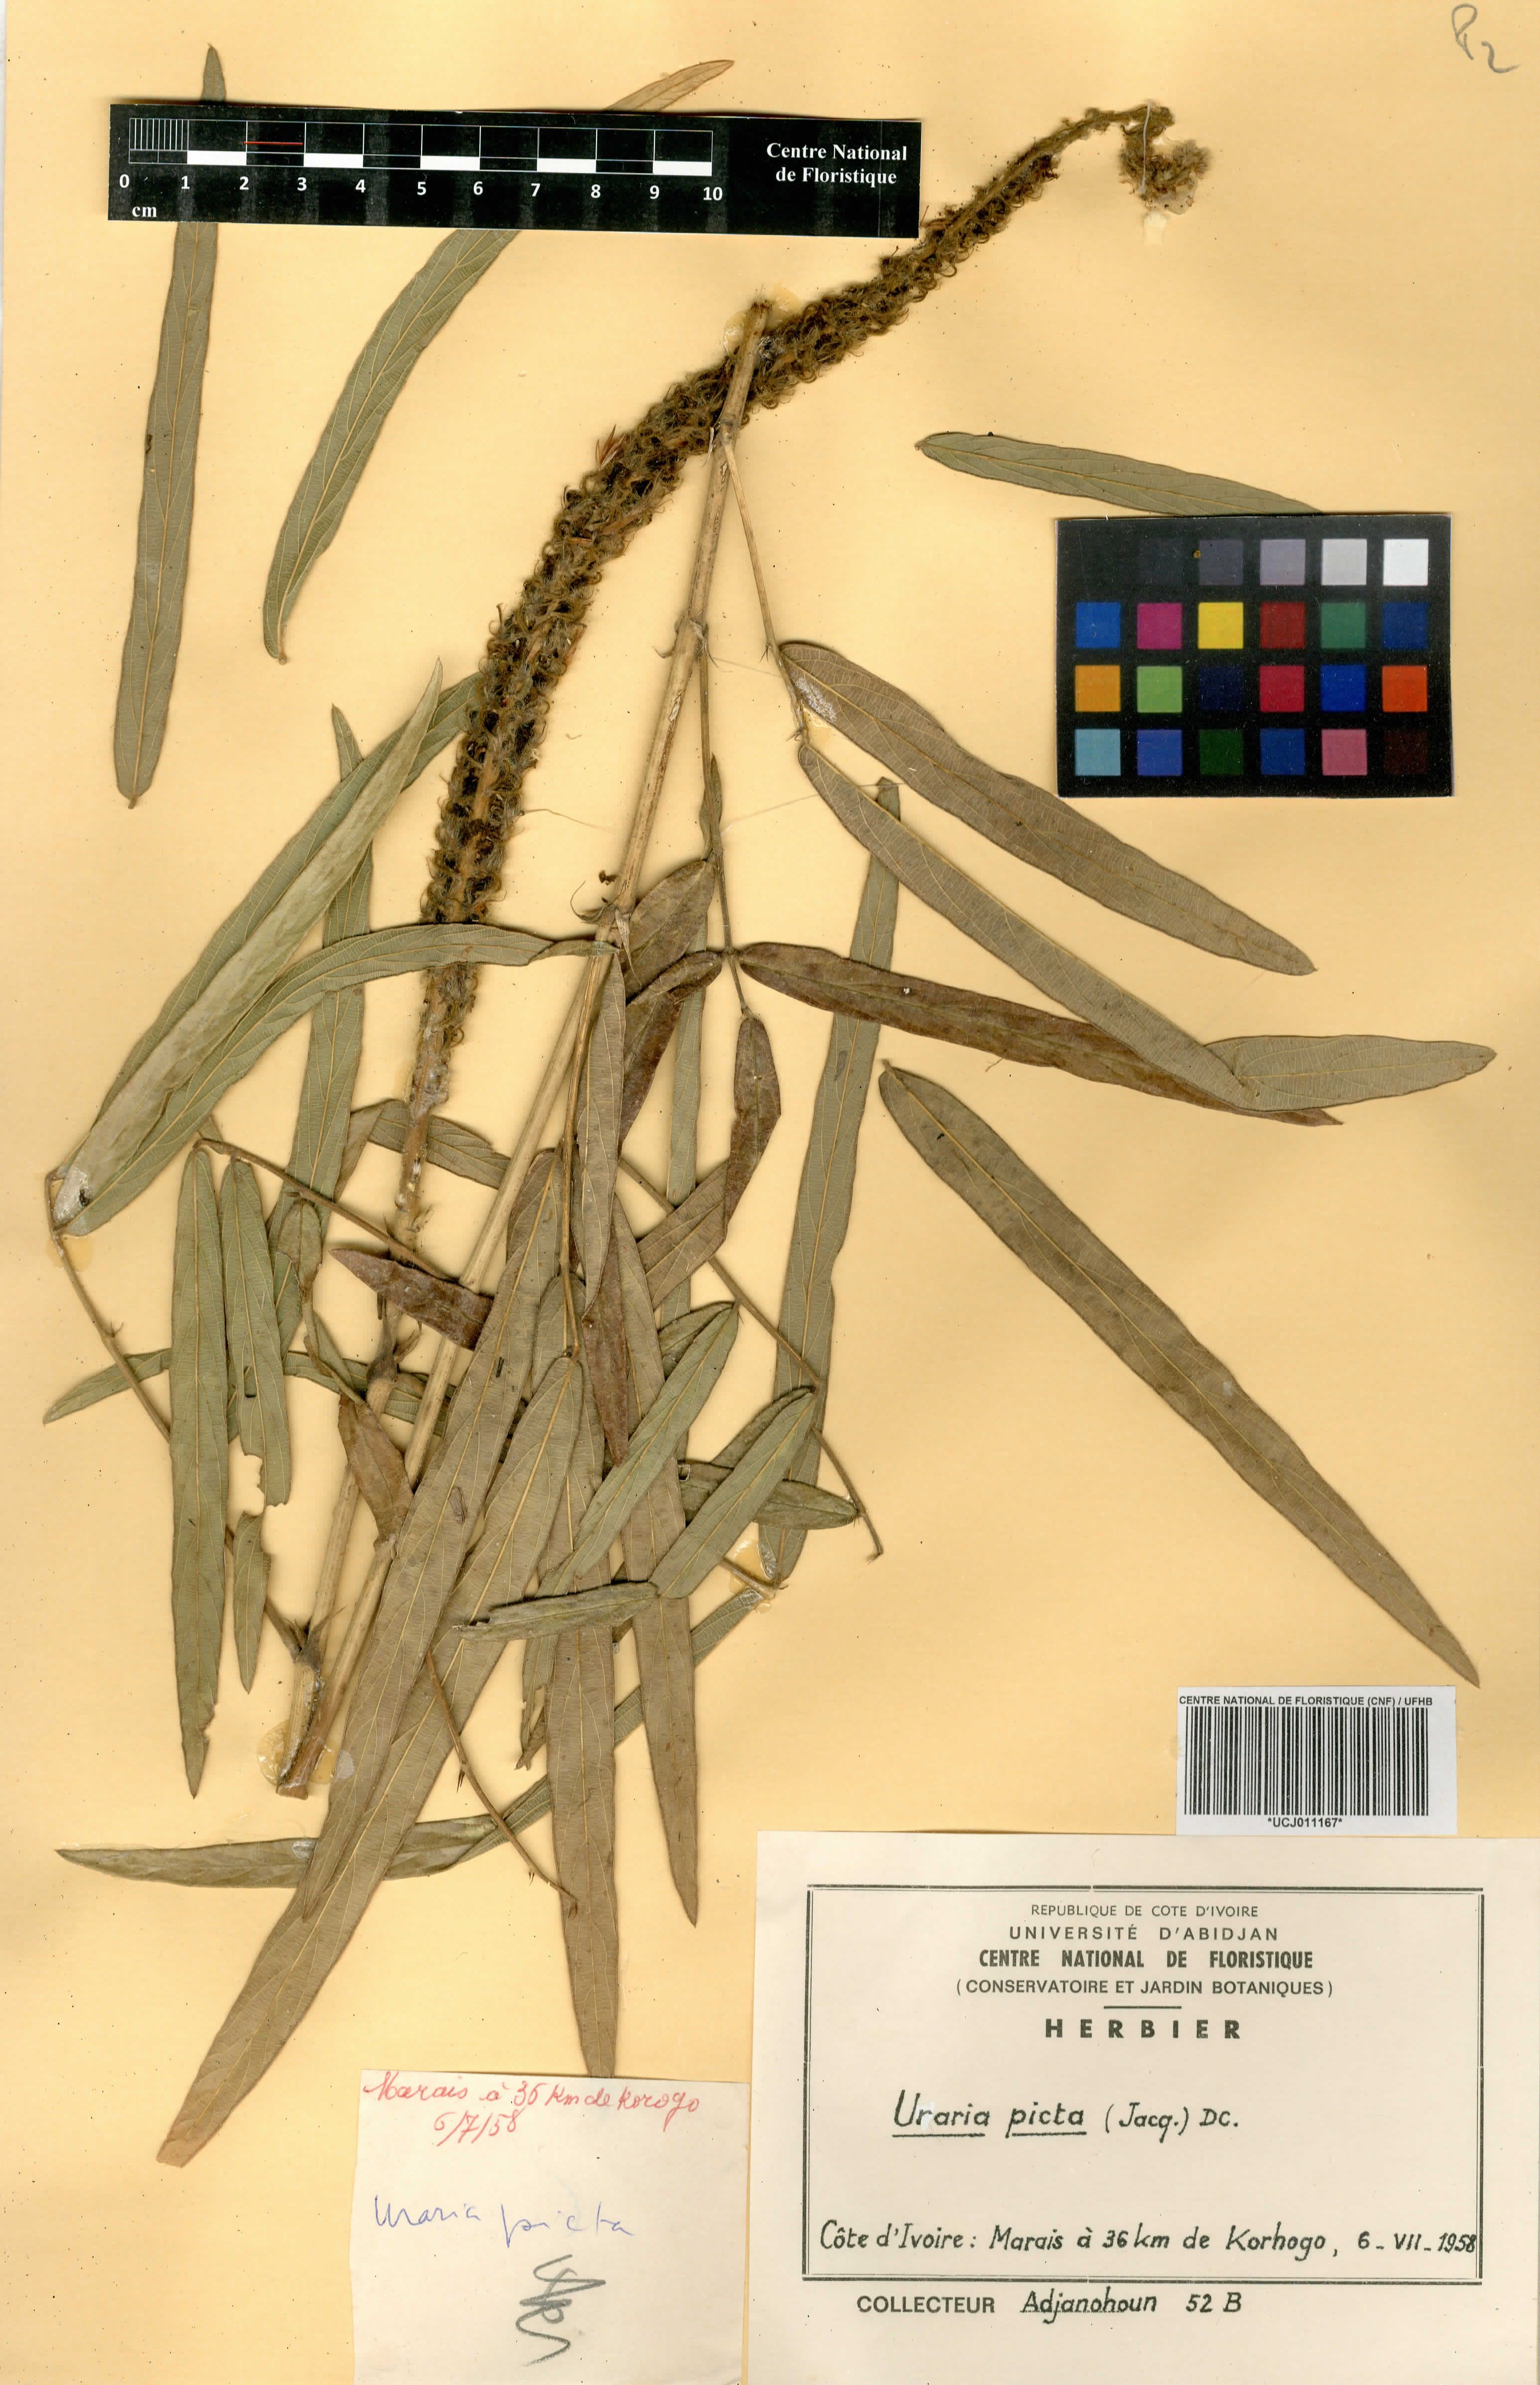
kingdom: Plantae
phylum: Tracheophyta
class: Magnoliopsida
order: Fabales
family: Fabaceae
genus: Uraria
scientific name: Uraria picta
